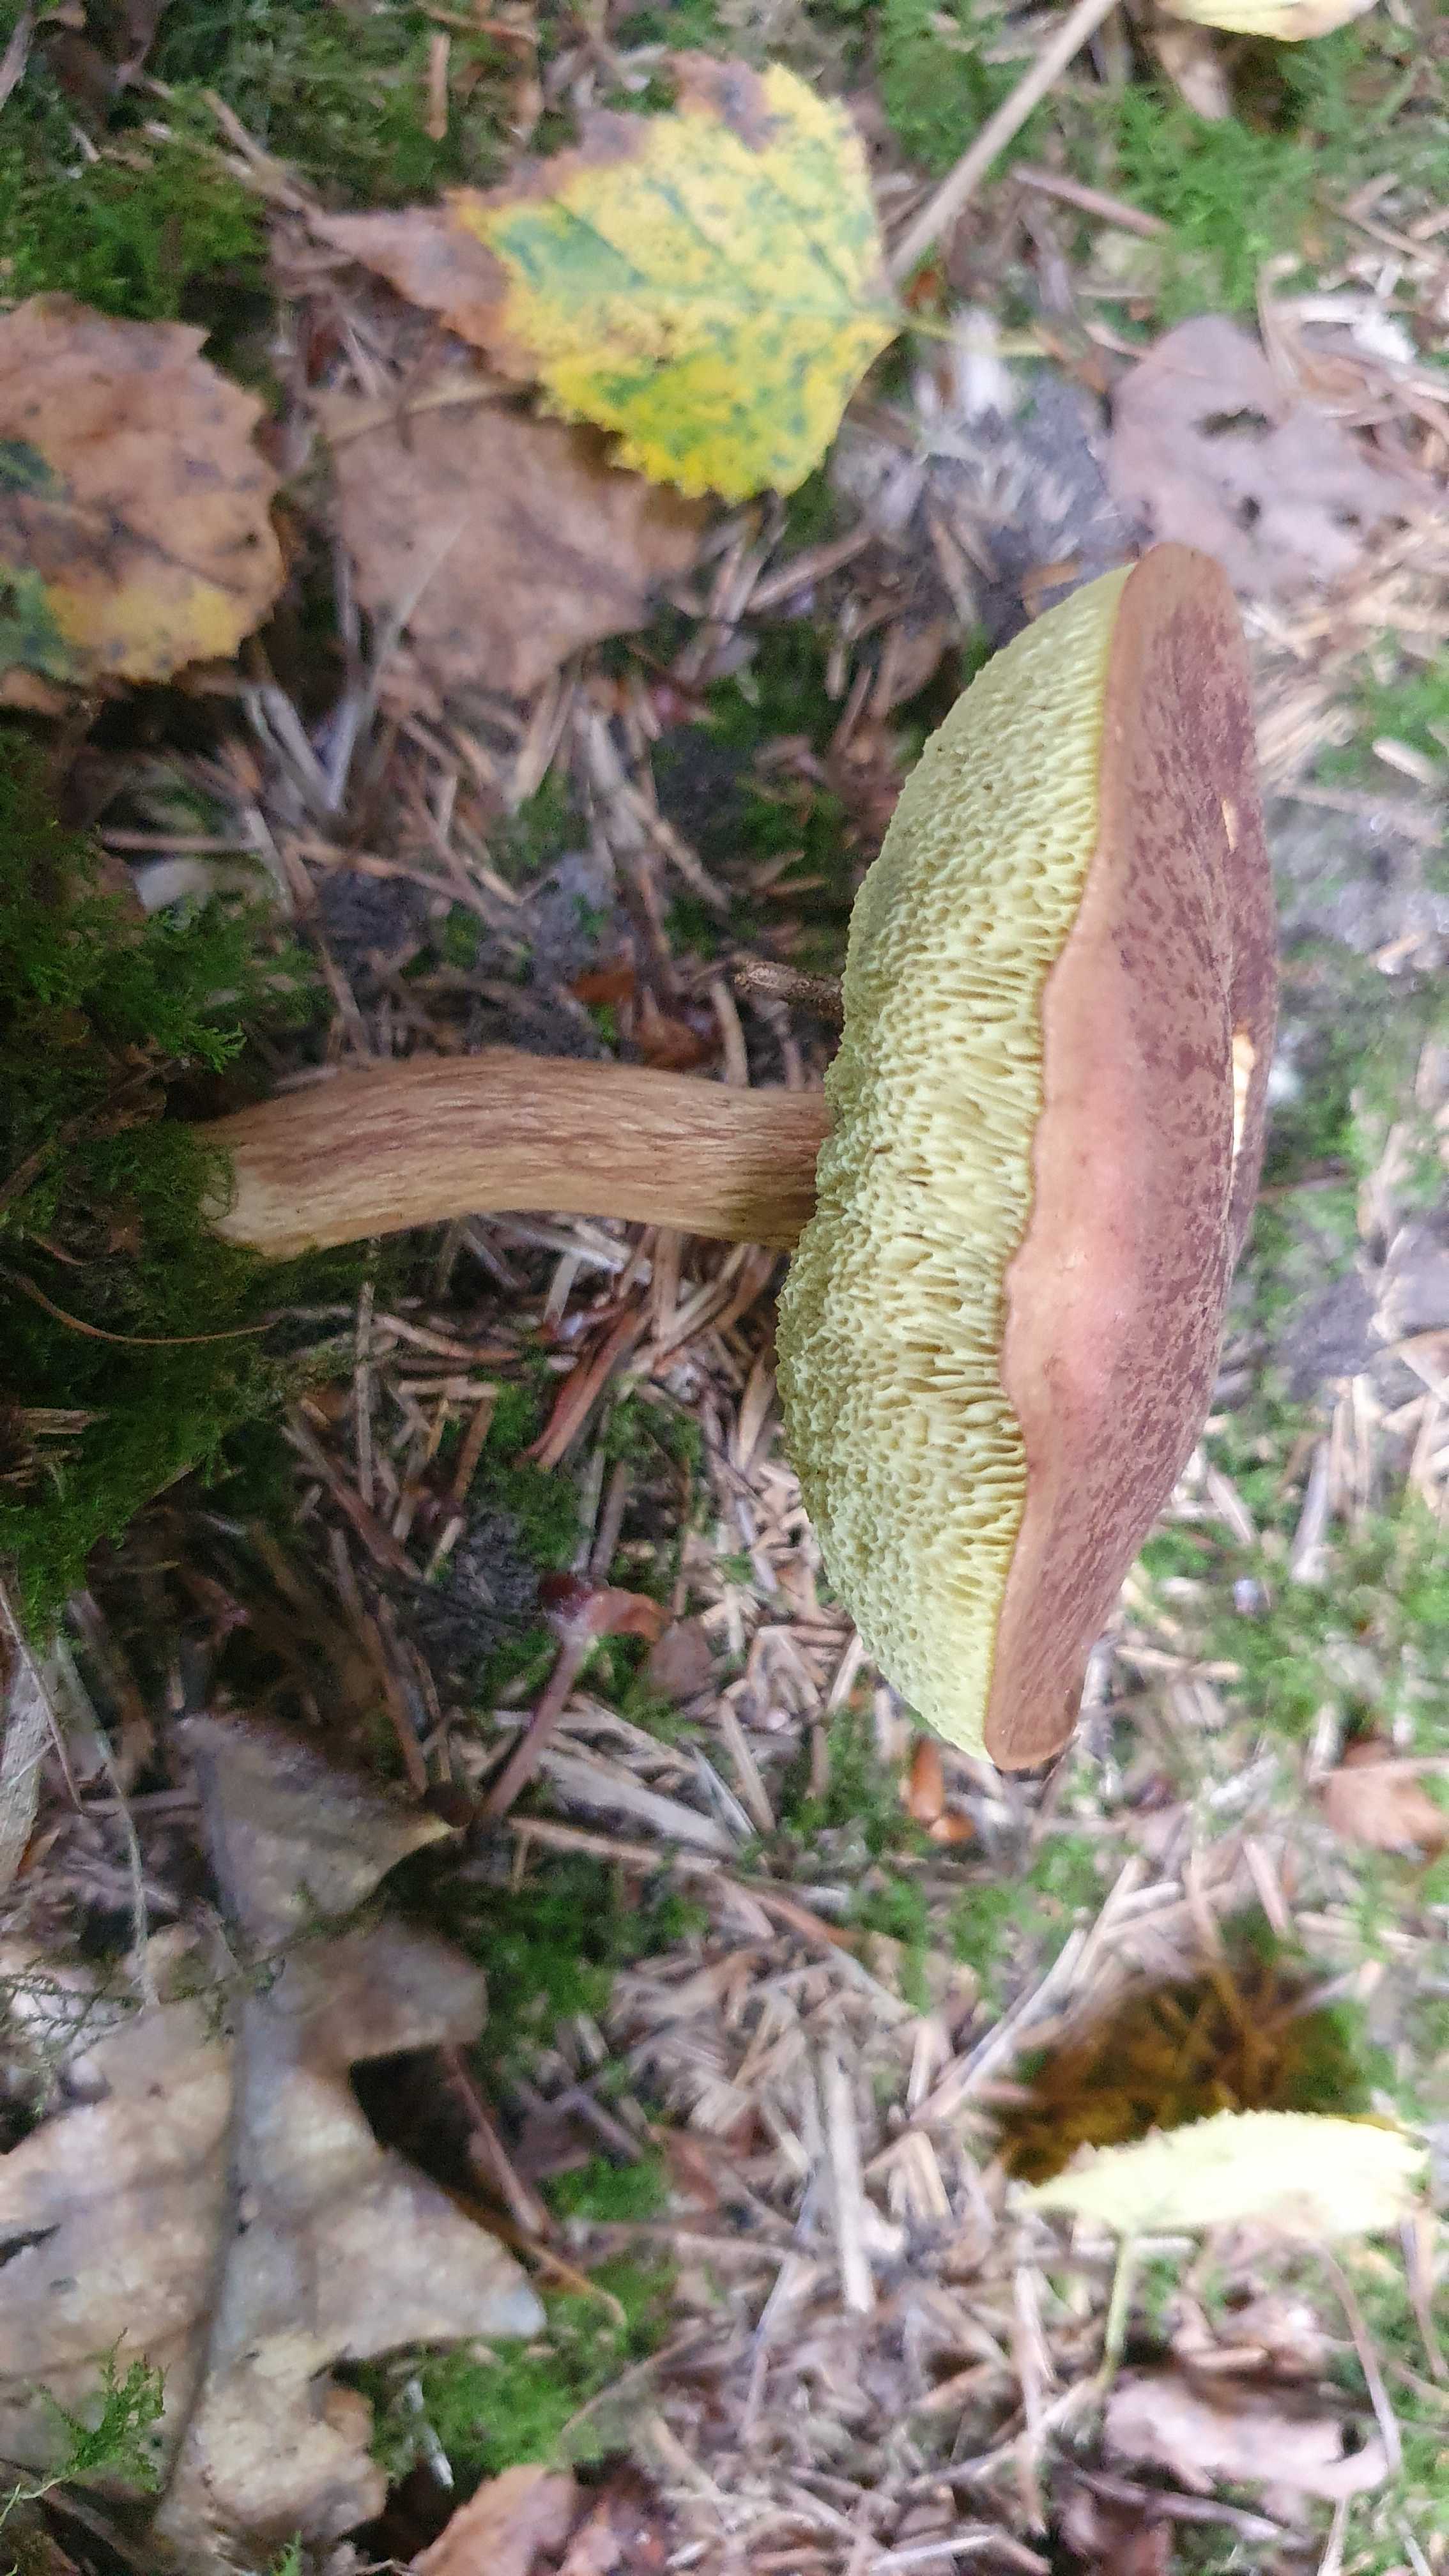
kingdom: Fungi
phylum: Basidiomycota
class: Agaricomycetes
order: Boletales
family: Boletaceae
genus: Imleria
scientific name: Imleria badia
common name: brunstokket rørhat
